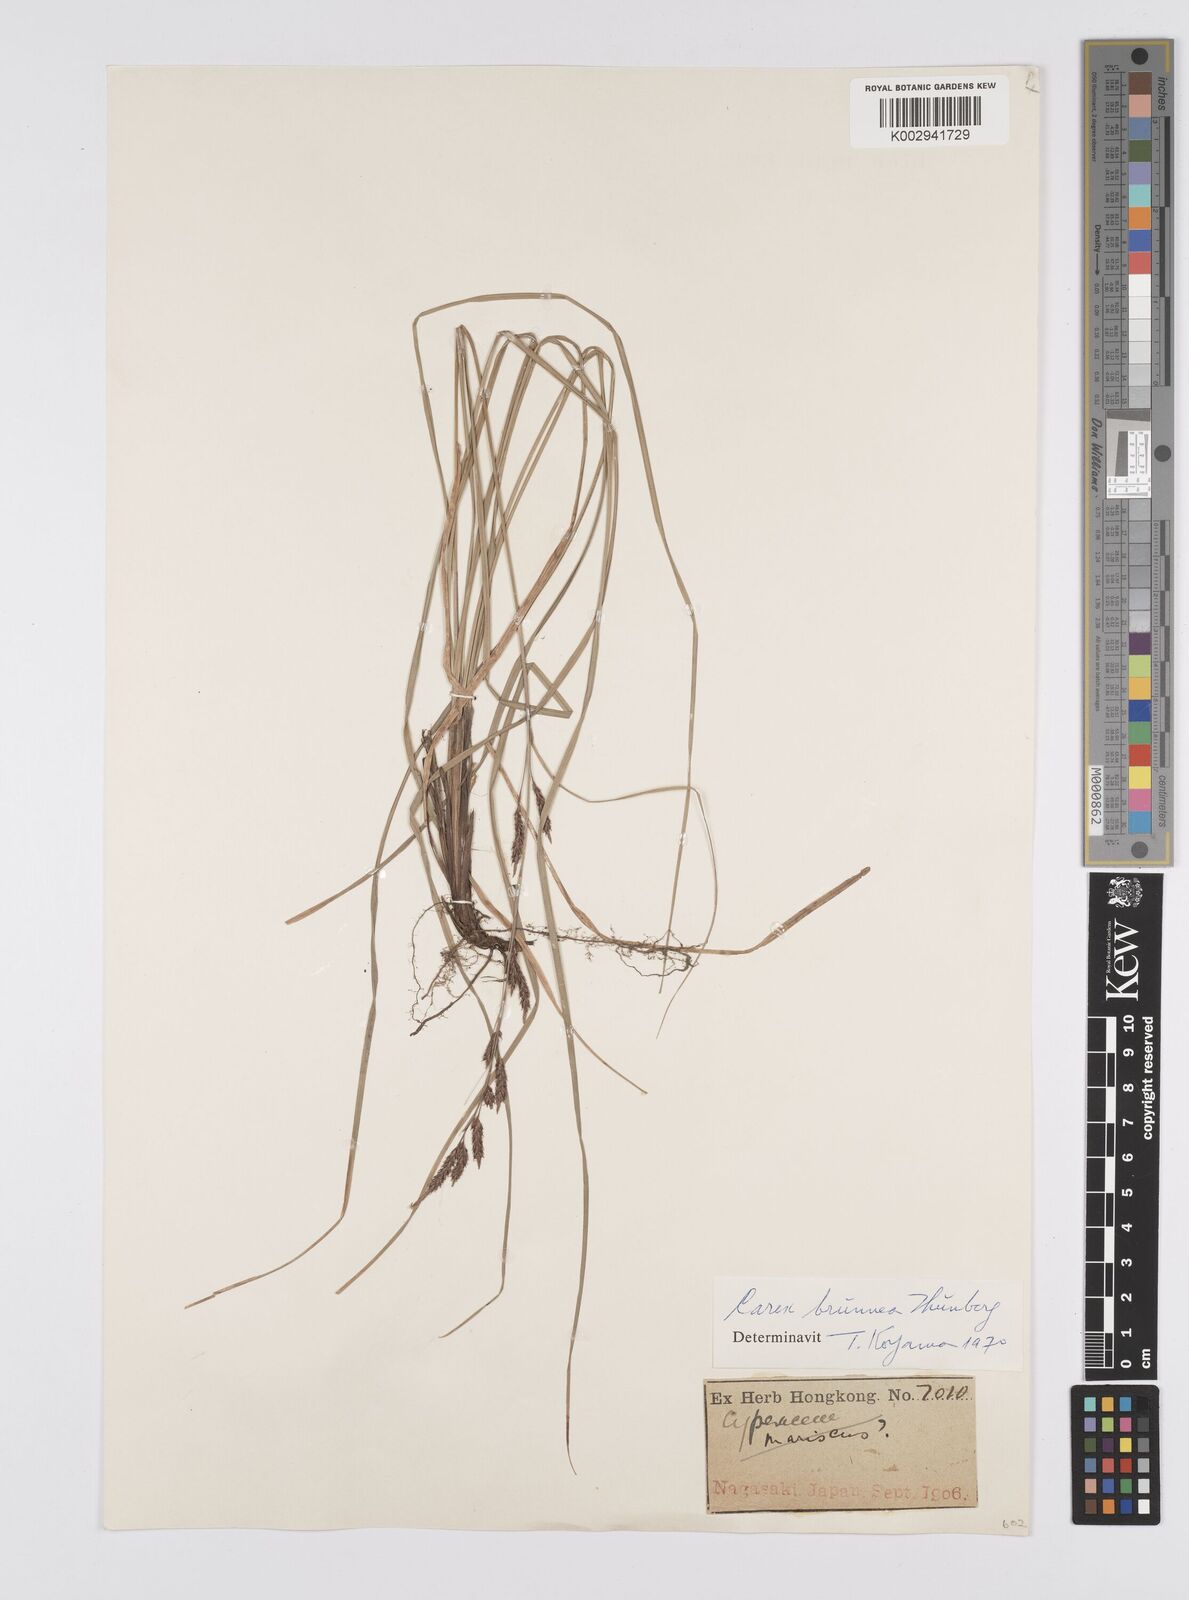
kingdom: Plantae
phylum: Tracheophyta
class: Liliopsida
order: Poales
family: Cyperaceae
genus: Carex
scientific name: Carex brunnea
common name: Greater brown sedge
